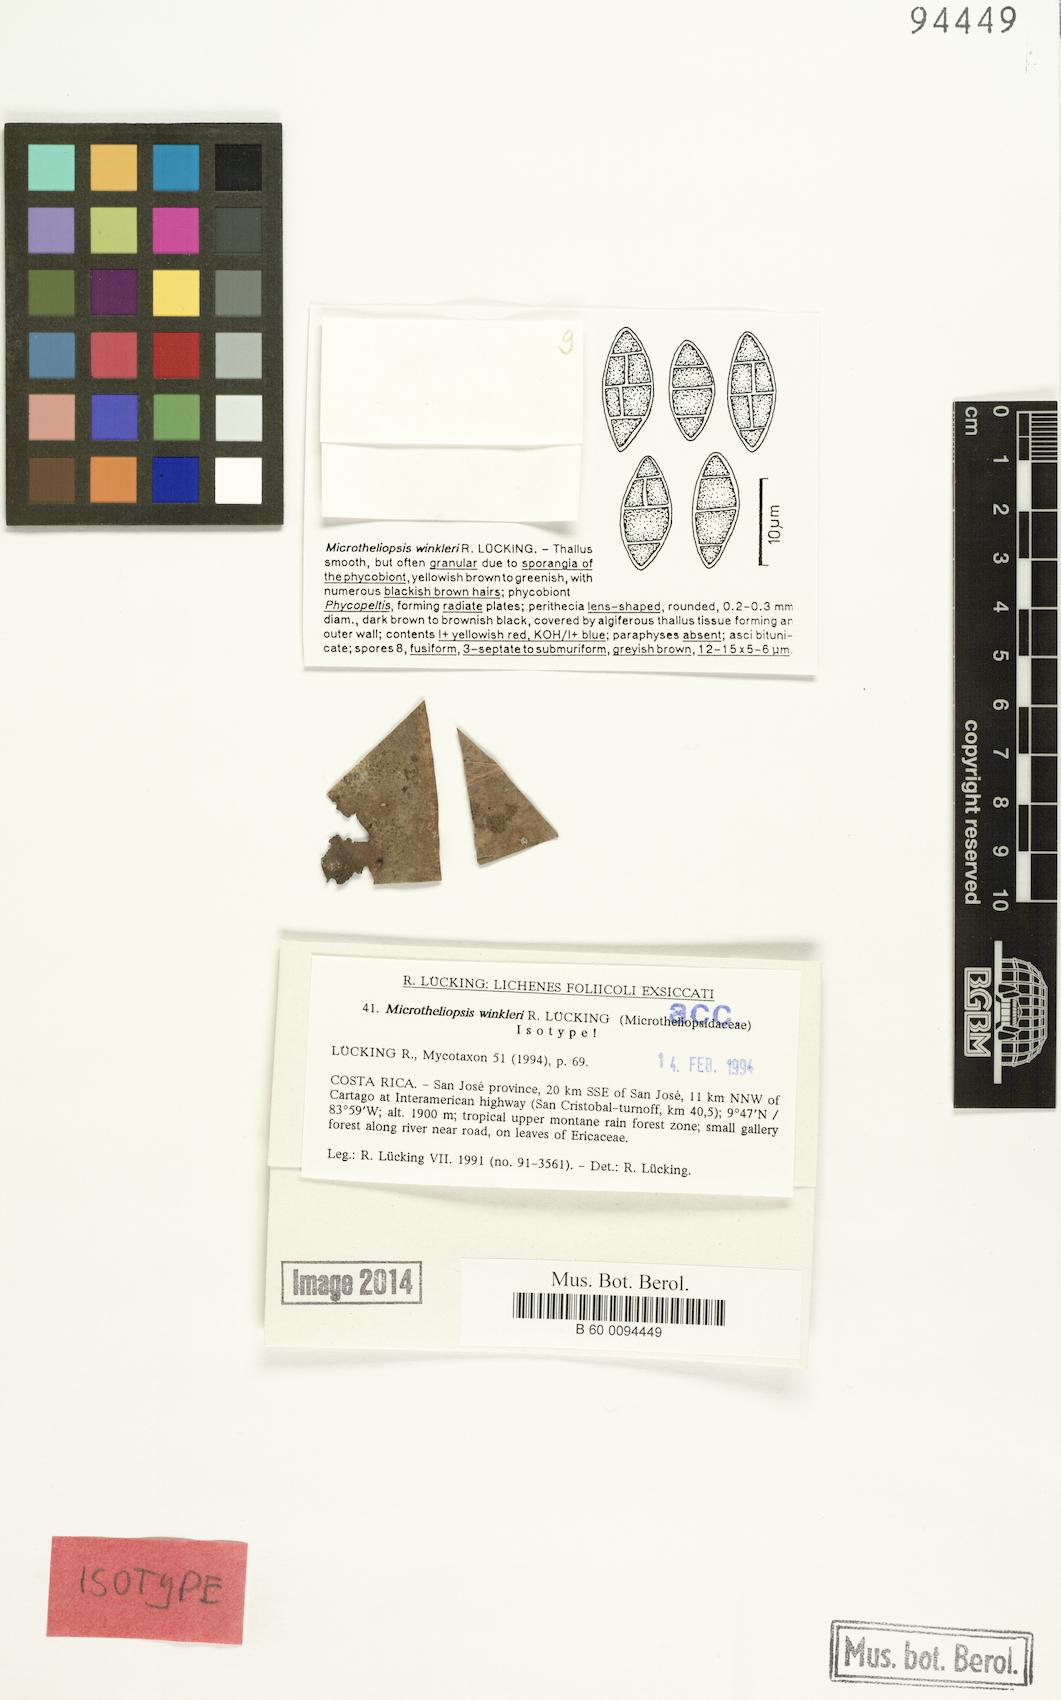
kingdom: Fungi
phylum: Ascomycota
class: Eurotiomycetes
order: Chaetothyriales
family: Microtheliopsidaceae
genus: Microtheliopsis
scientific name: Microtheliopsis winkleri
